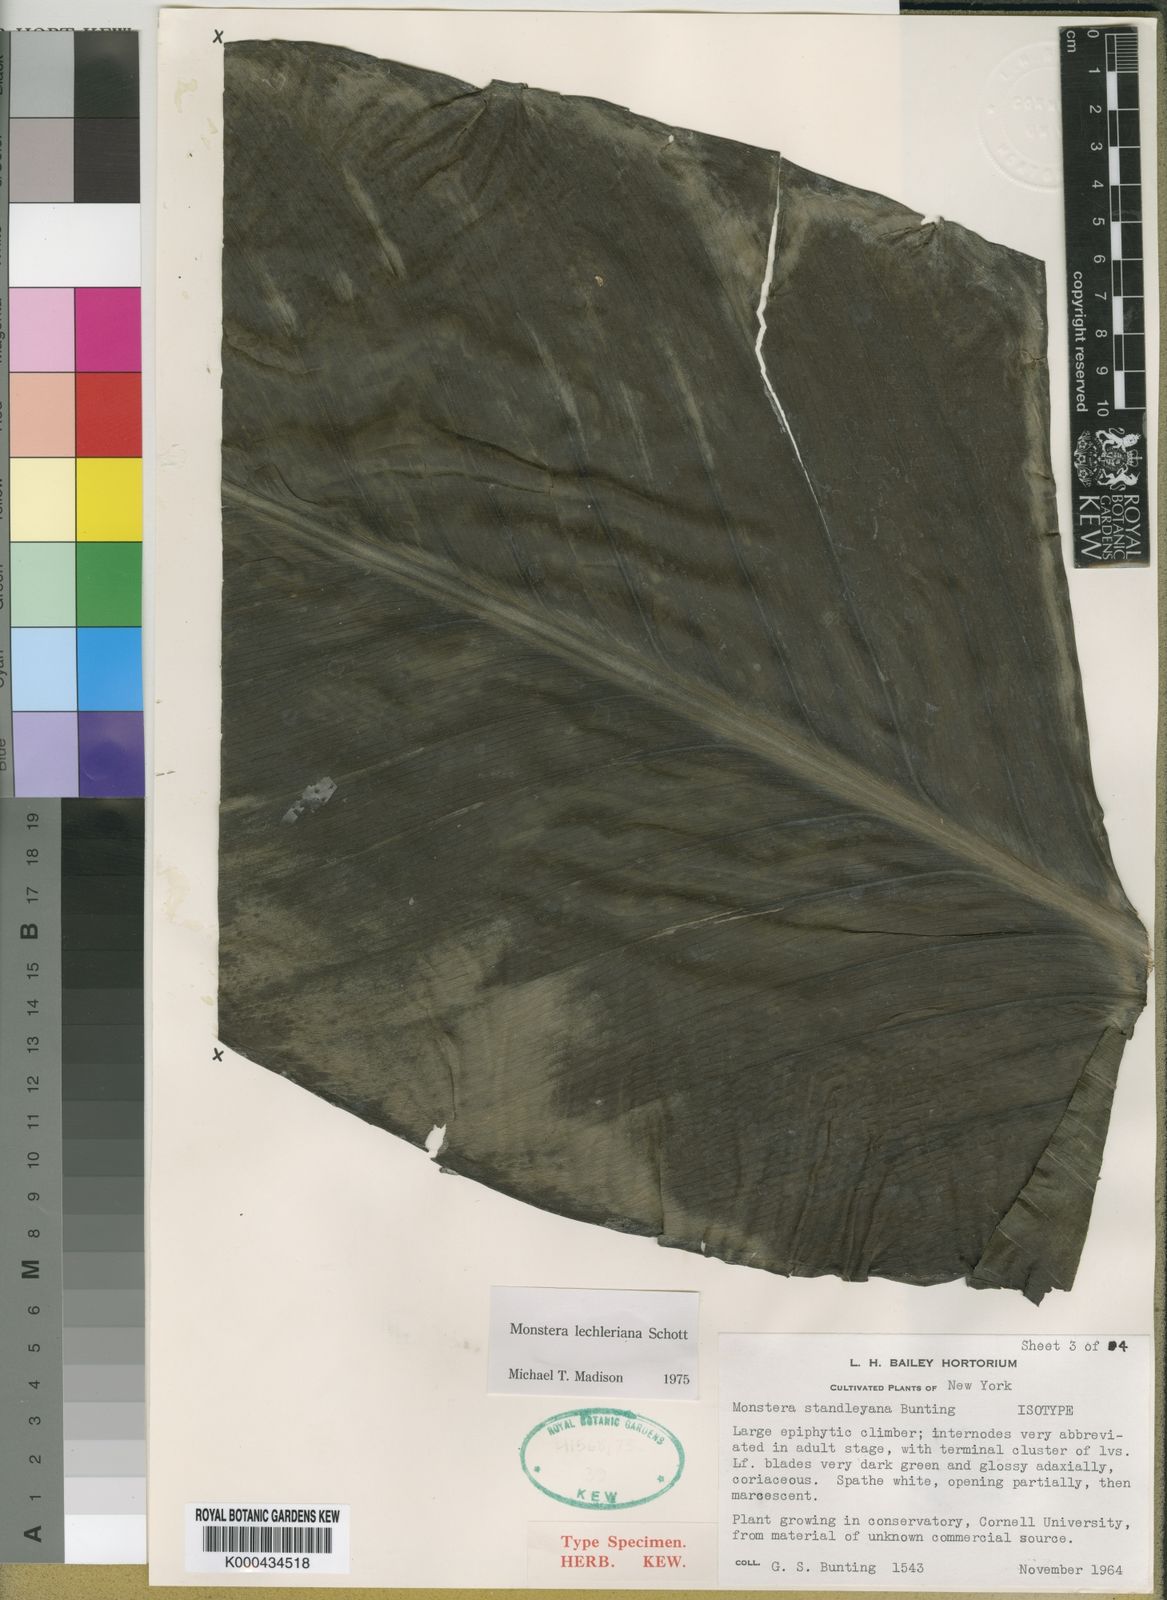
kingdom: Plantae
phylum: Tracheophyta
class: Liliopsida
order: Alismatales
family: Araceae
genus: Monstera
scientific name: Monstera lechleriana
